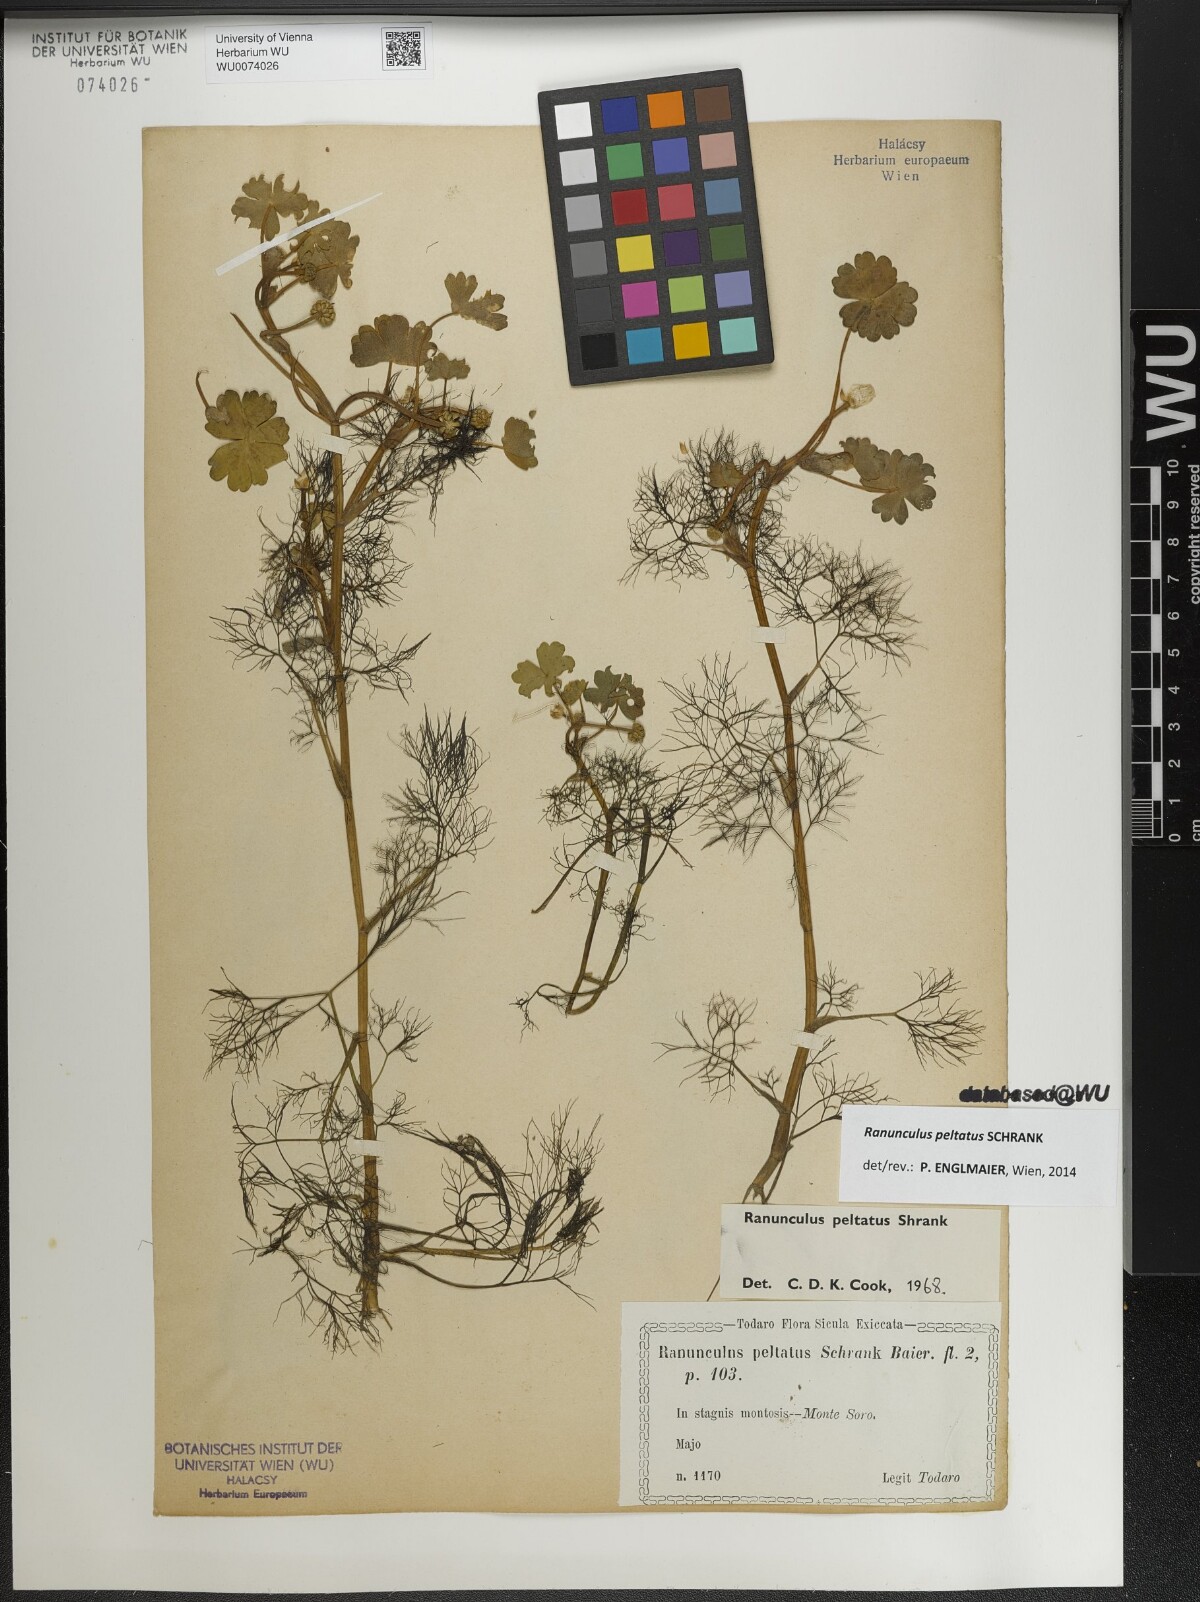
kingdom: Plantae
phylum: Tracheophyta
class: Magnoliopsida
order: Ranunculales
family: Ranunculaceae
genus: Ranunculus
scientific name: Ranunculus peltatus
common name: Pond water-crowfoot
